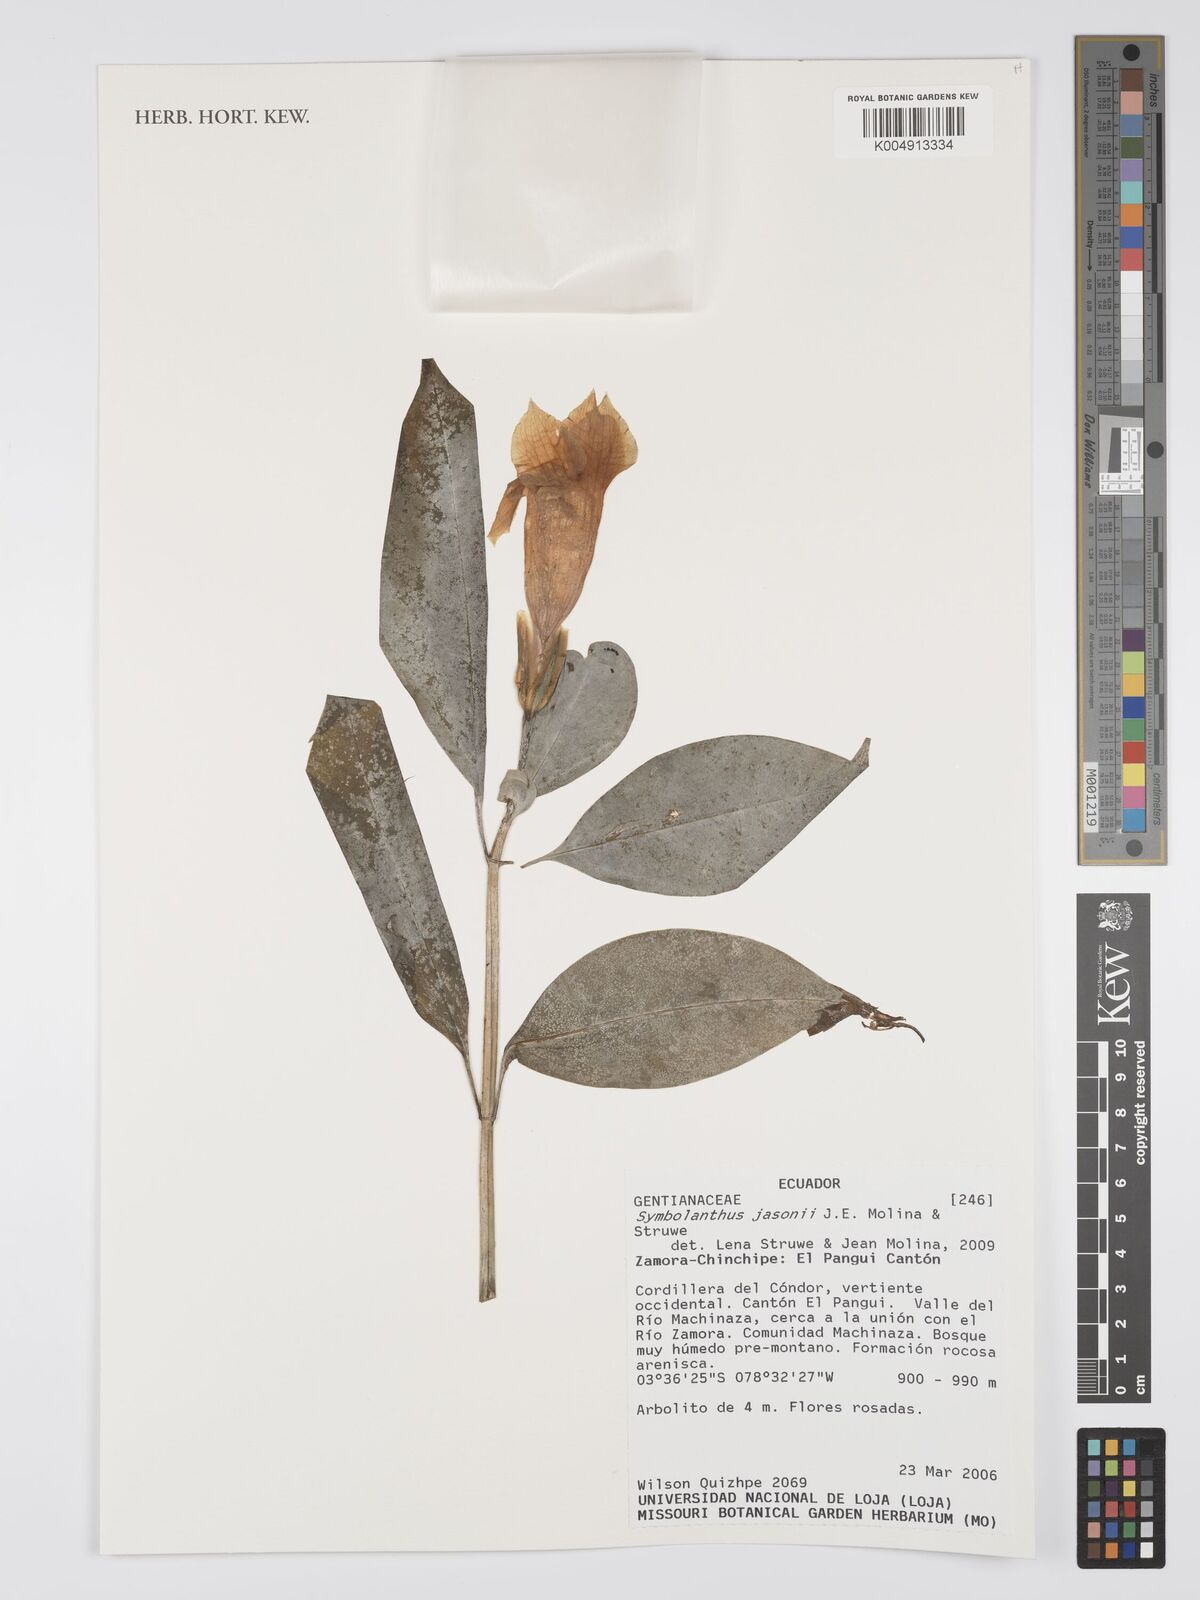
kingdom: Plantae
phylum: Tracheophyta
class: Magnoliopsida
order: Gentianales
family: Gentianaceae
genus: Symbolanthus
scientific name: Symbolanthus jasonii
